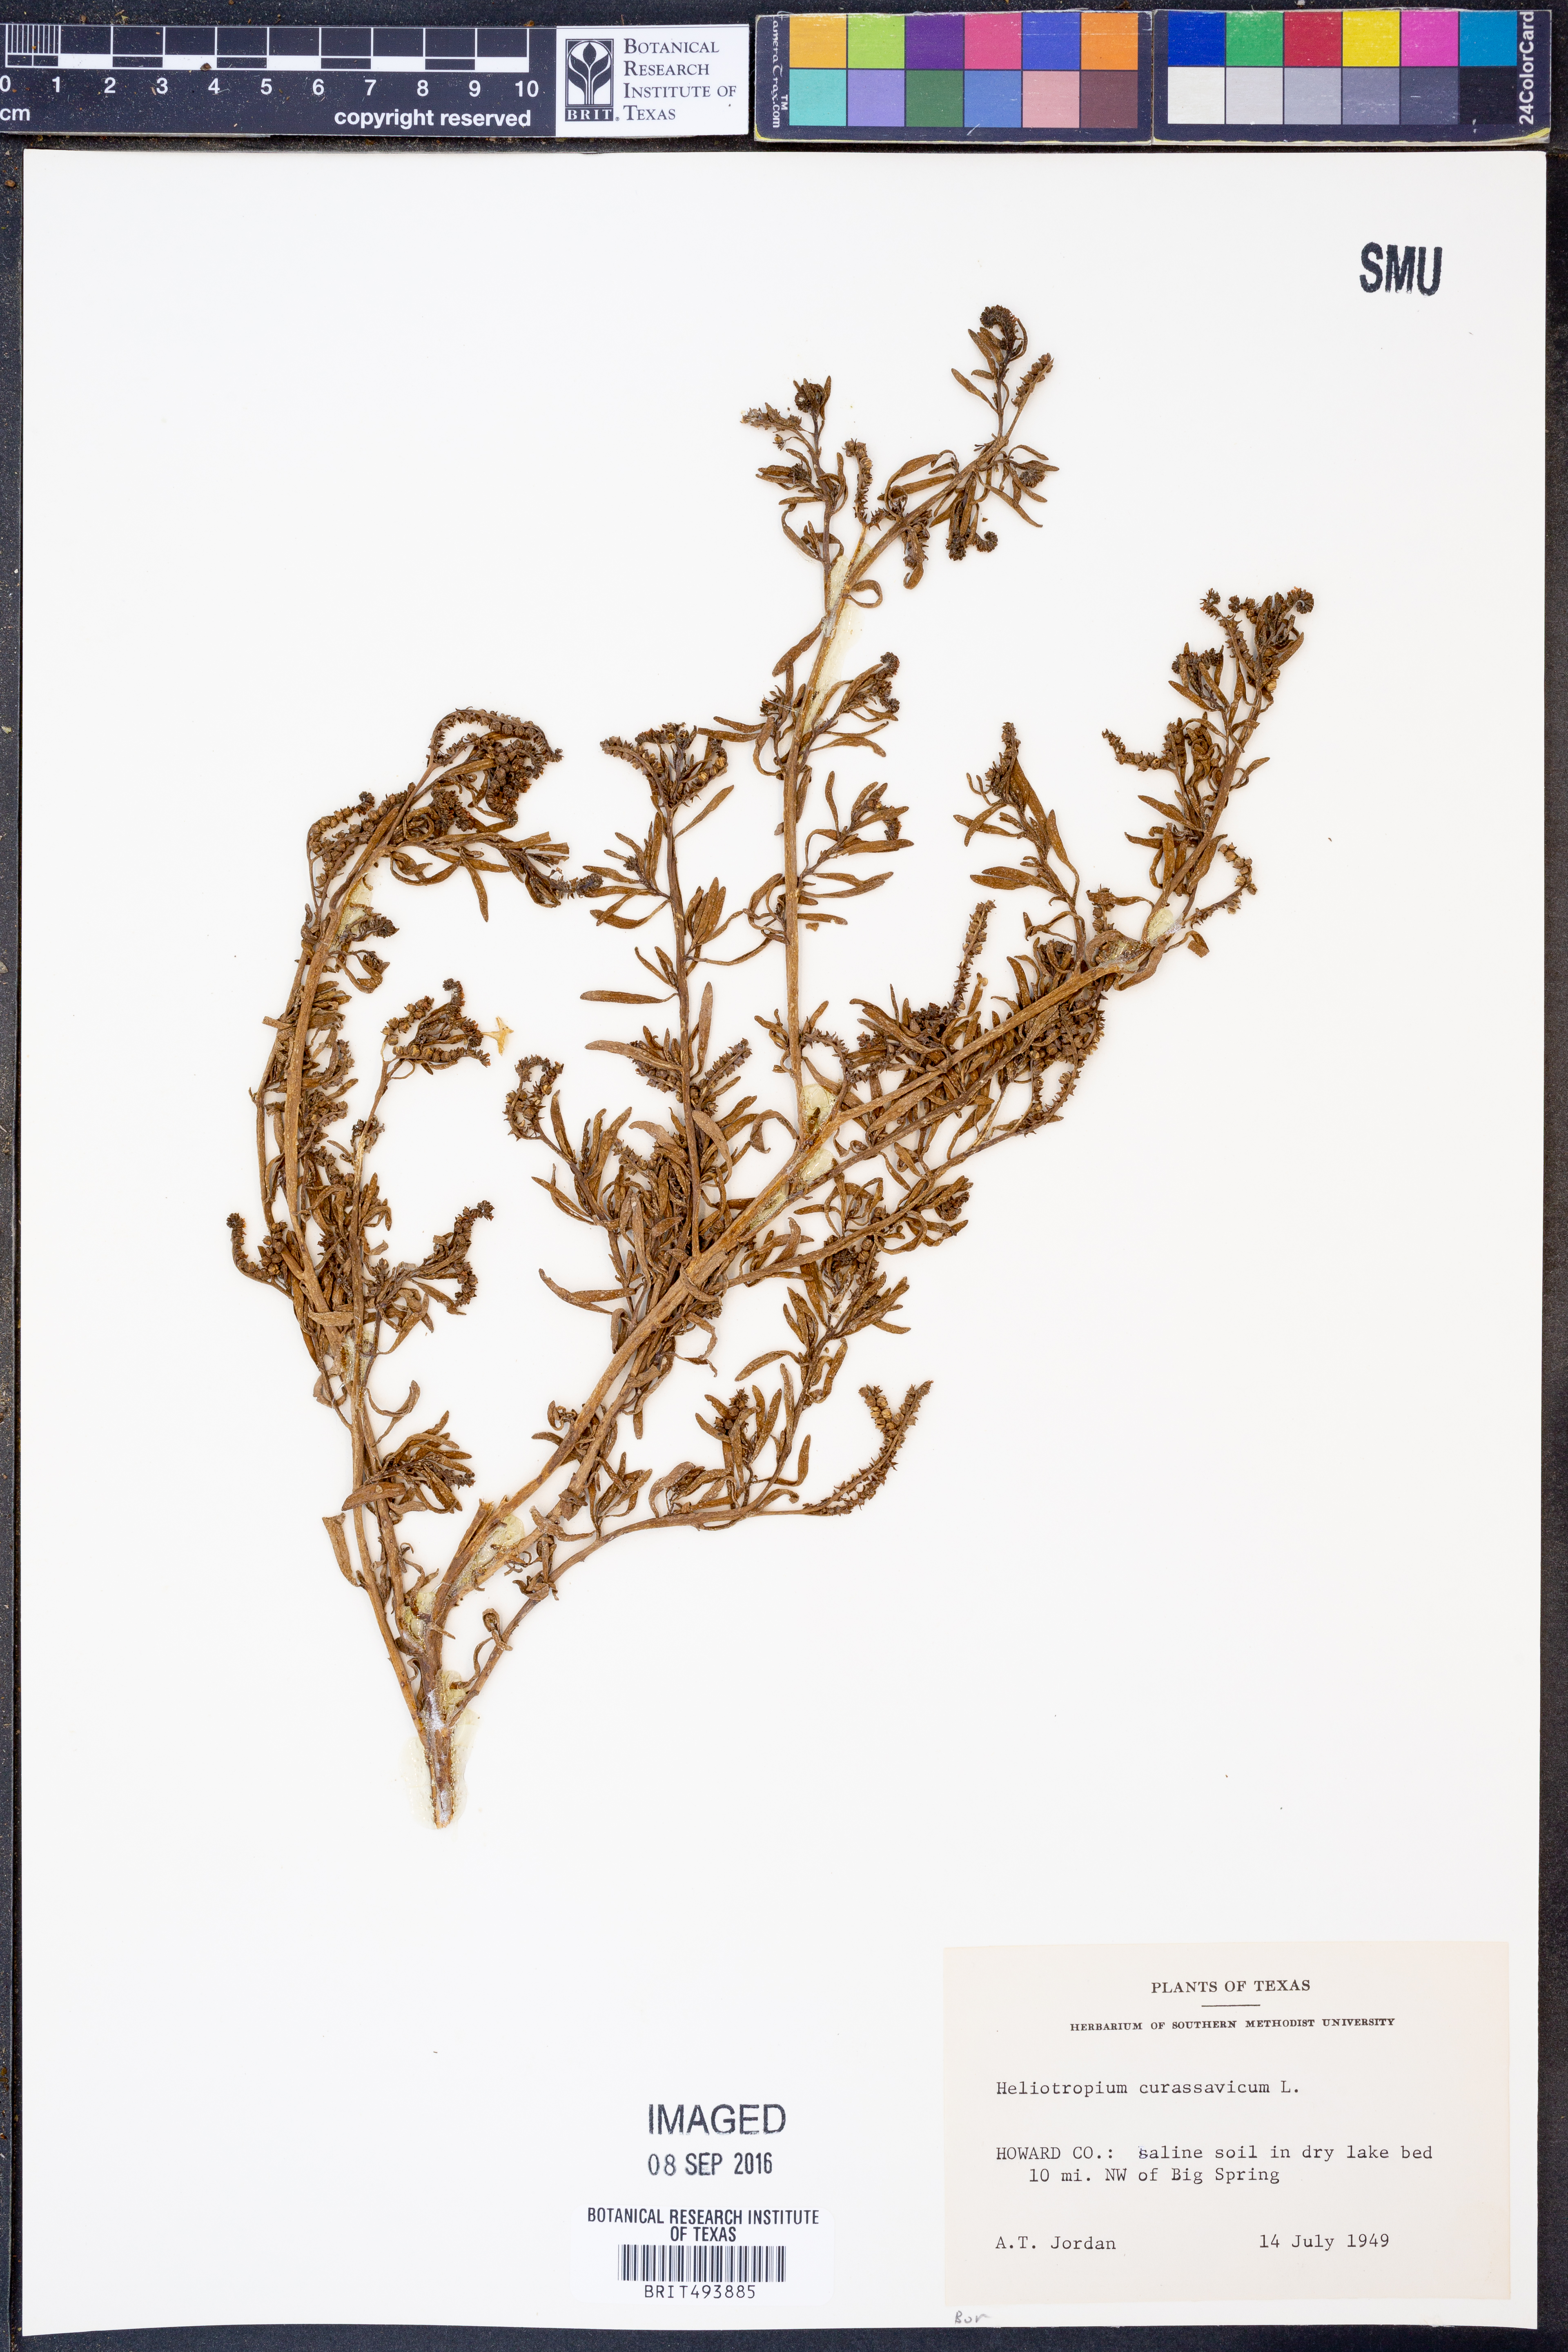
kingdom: Plantae
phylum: Tracheophyta
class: Magnoliopsida
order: Boraginales
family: Heliotropiaceae
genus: Heliotropium
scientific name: Heliotropium curassavicum
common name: Seaside heliotrope
